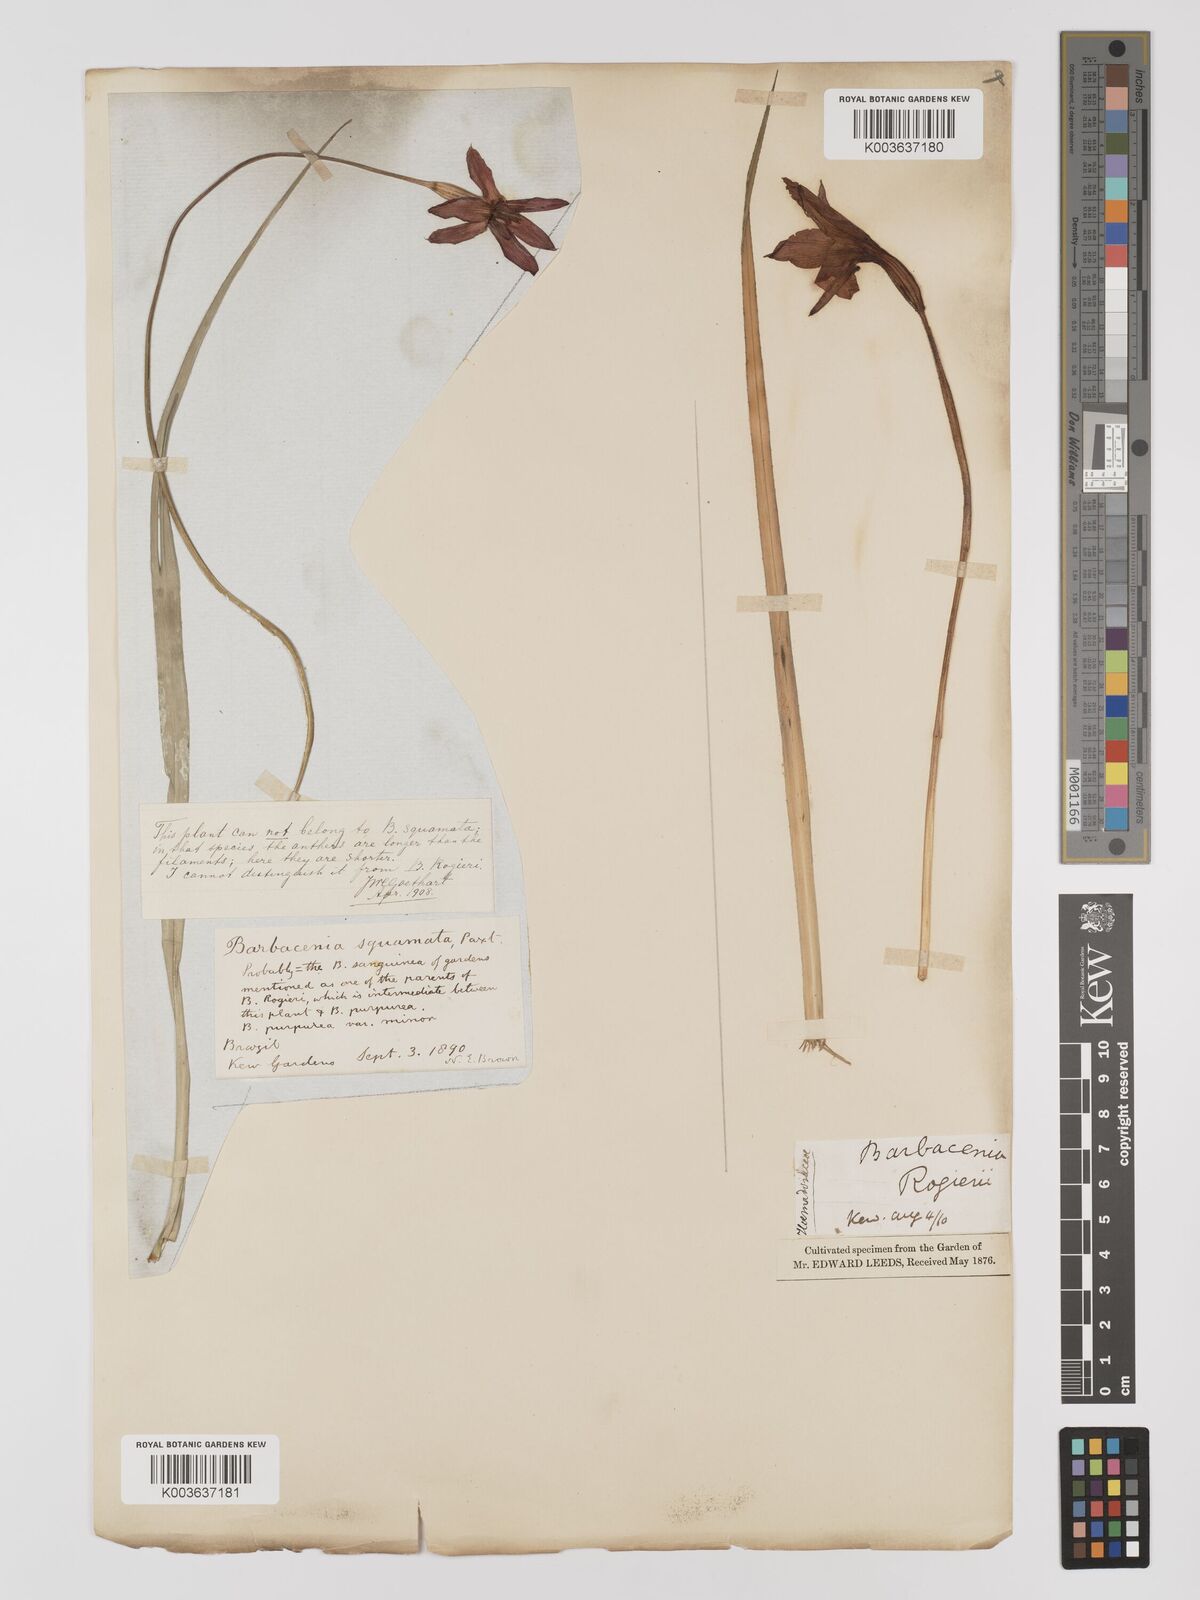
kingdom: Plantae
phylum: Tracheophyta
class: Liliopsida
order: Pandanales
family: Velloziaceae
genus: Barbacenia
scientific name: Barbacenia rogieri
